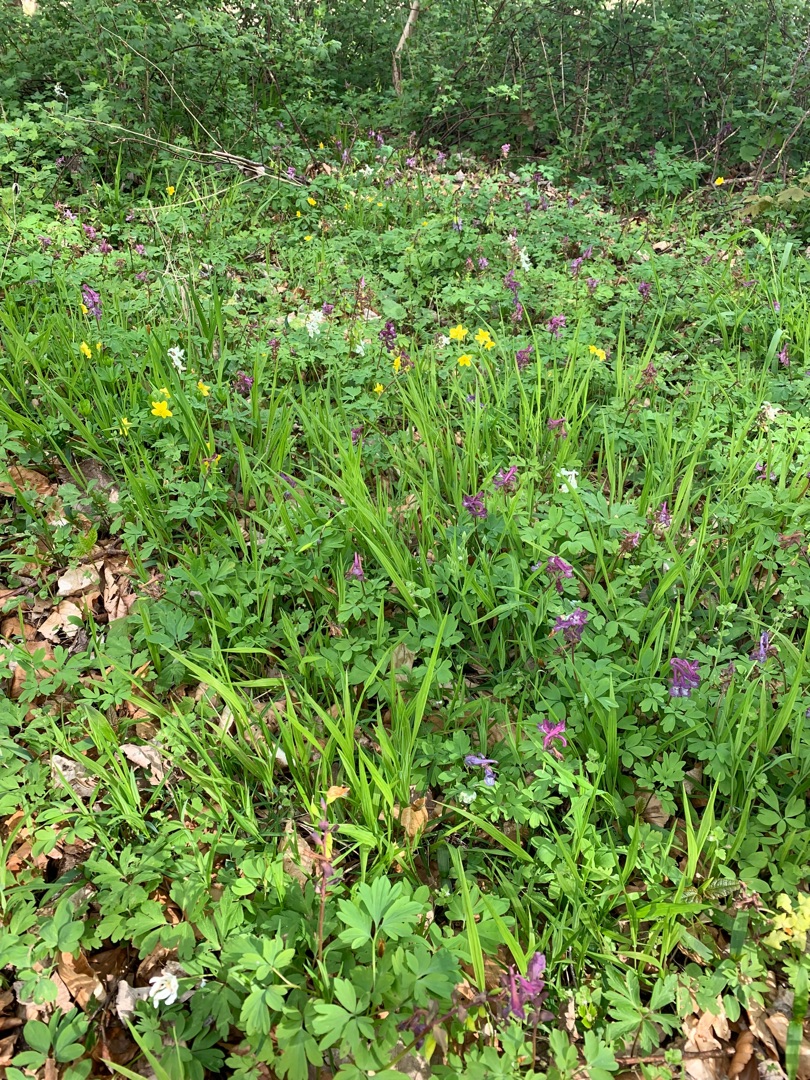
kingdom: Plantae
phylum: Tracheophyta
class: Magnoliopsida
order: Ranunculales
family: Papaveraceae
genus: Corydalis
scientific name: Corydalis cava
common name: Hulrodet lærkespore
